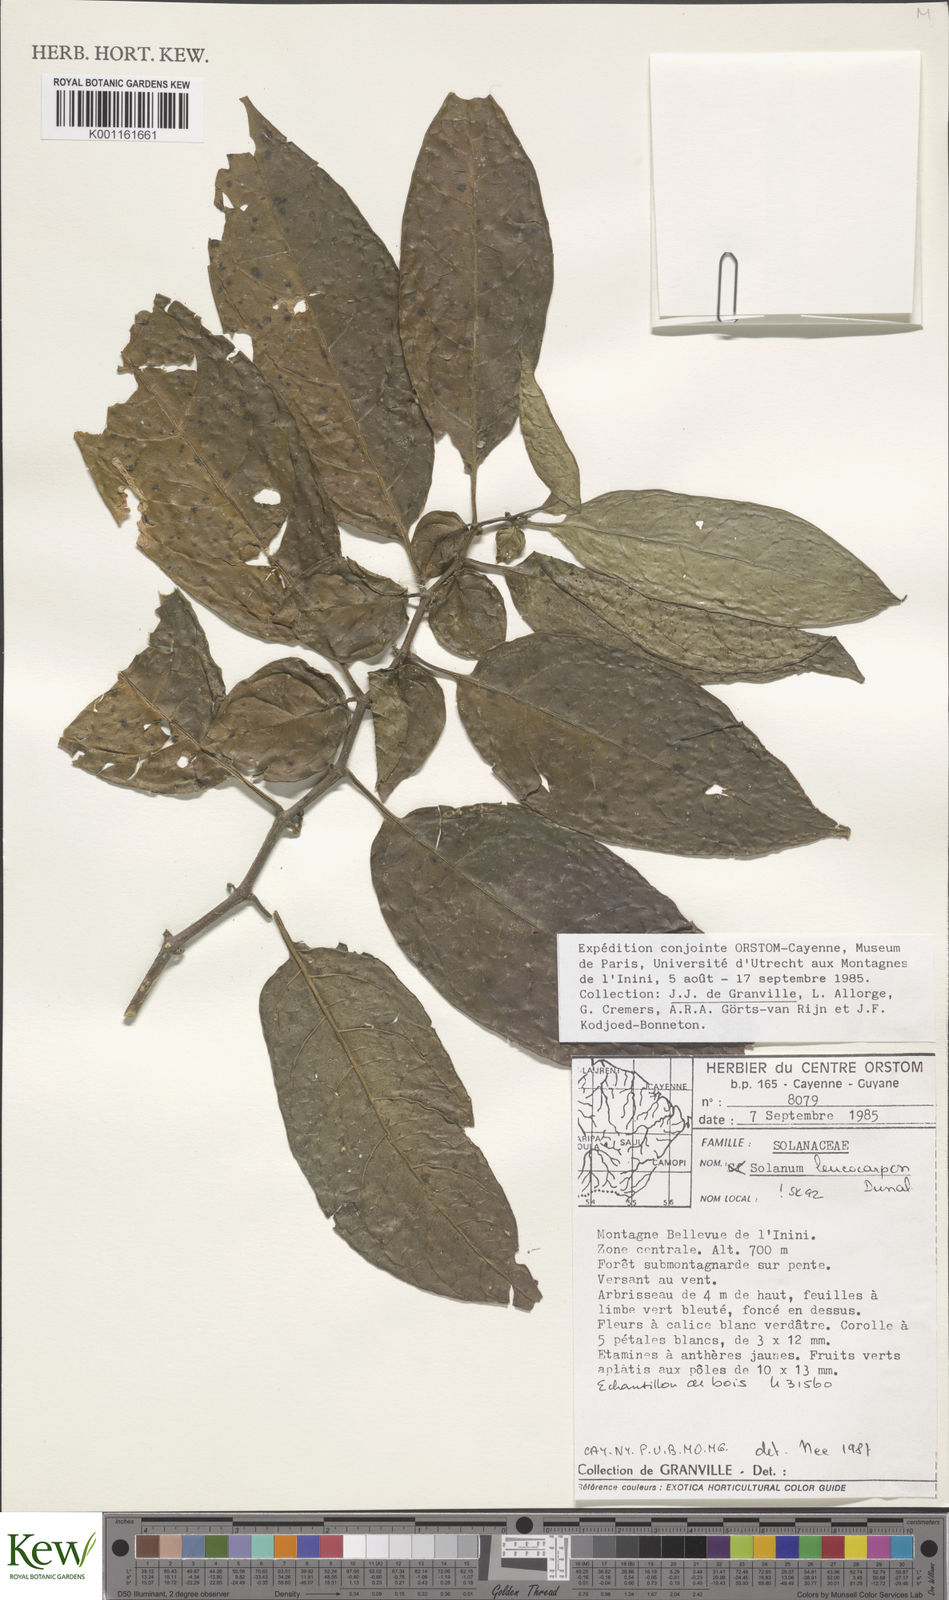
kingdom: Plantae
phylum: Tracheophyta
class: Magnoliopsida
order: Solanales
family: Solanaceae
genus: Solanum
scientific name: Solanum leucocarpon
